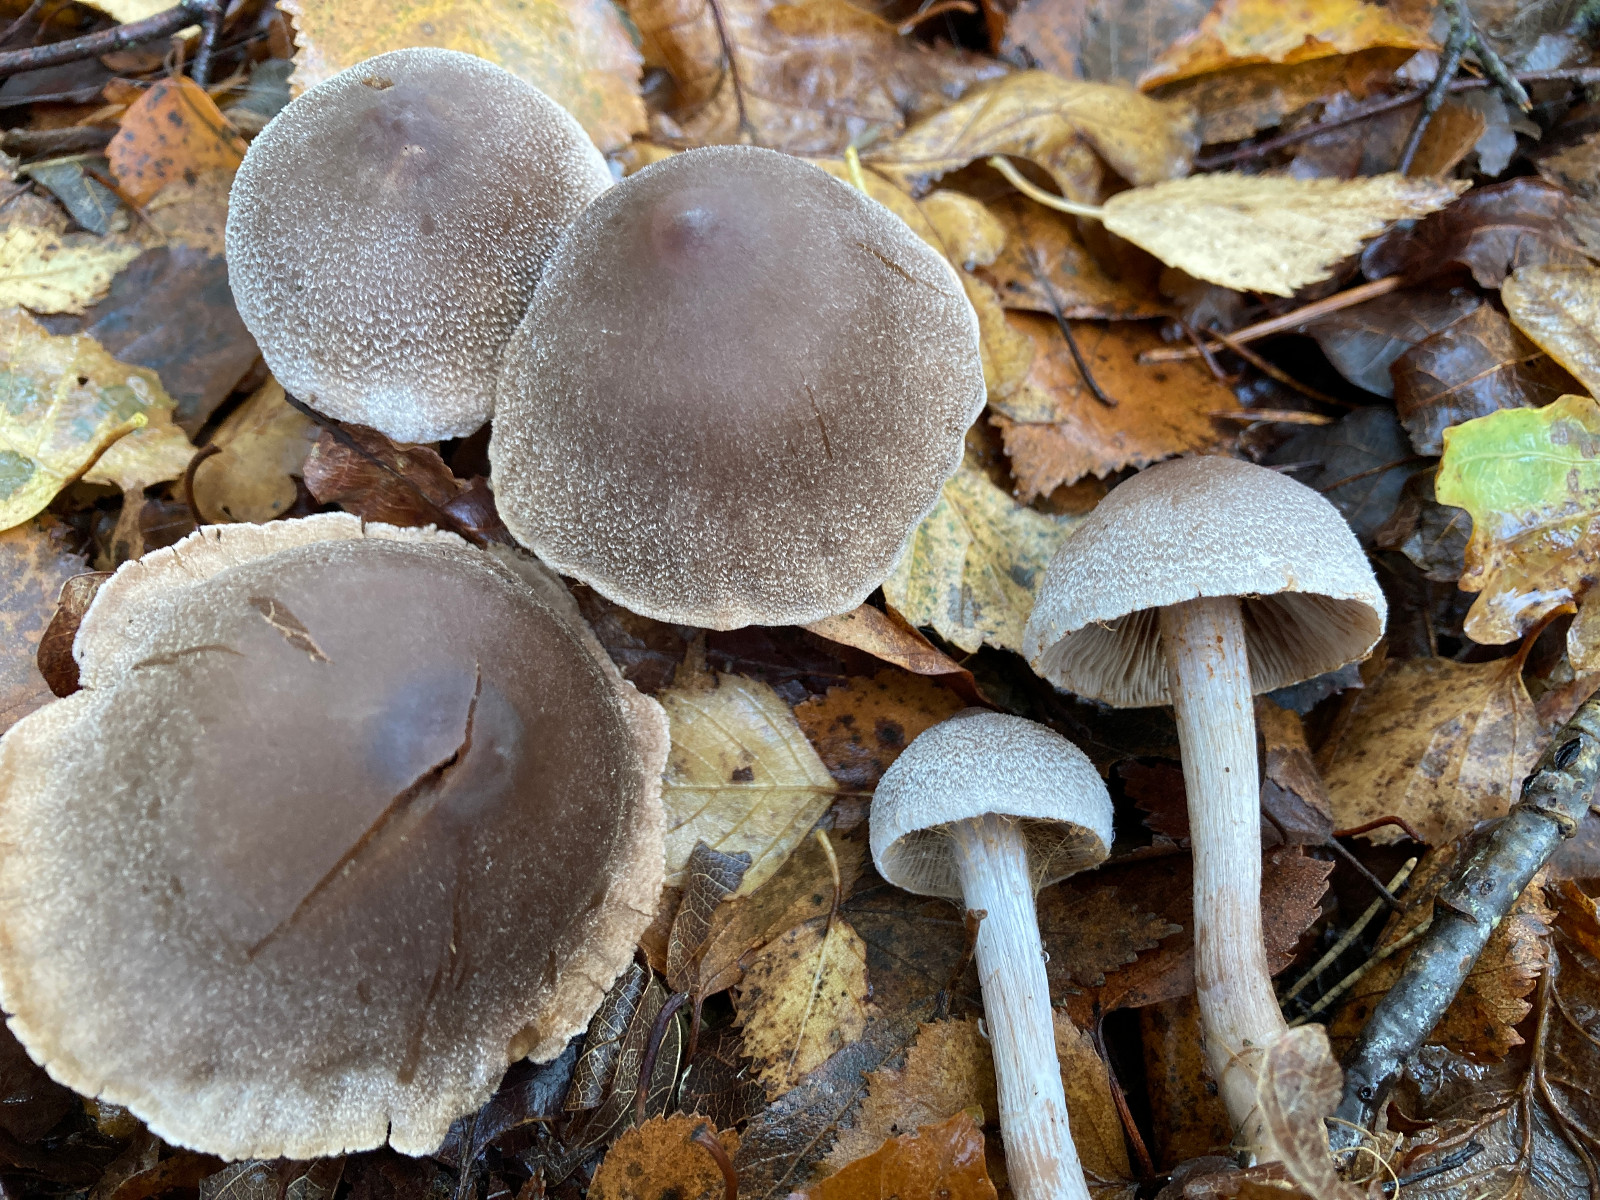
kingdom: Fungi
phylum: Basidiomycota
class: Agaricomycetes
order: Agaricales
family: Cortinariaceae
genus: Cortinarius
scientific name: Cortinarius hemitrichus
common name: hvidfnugget slørhat
